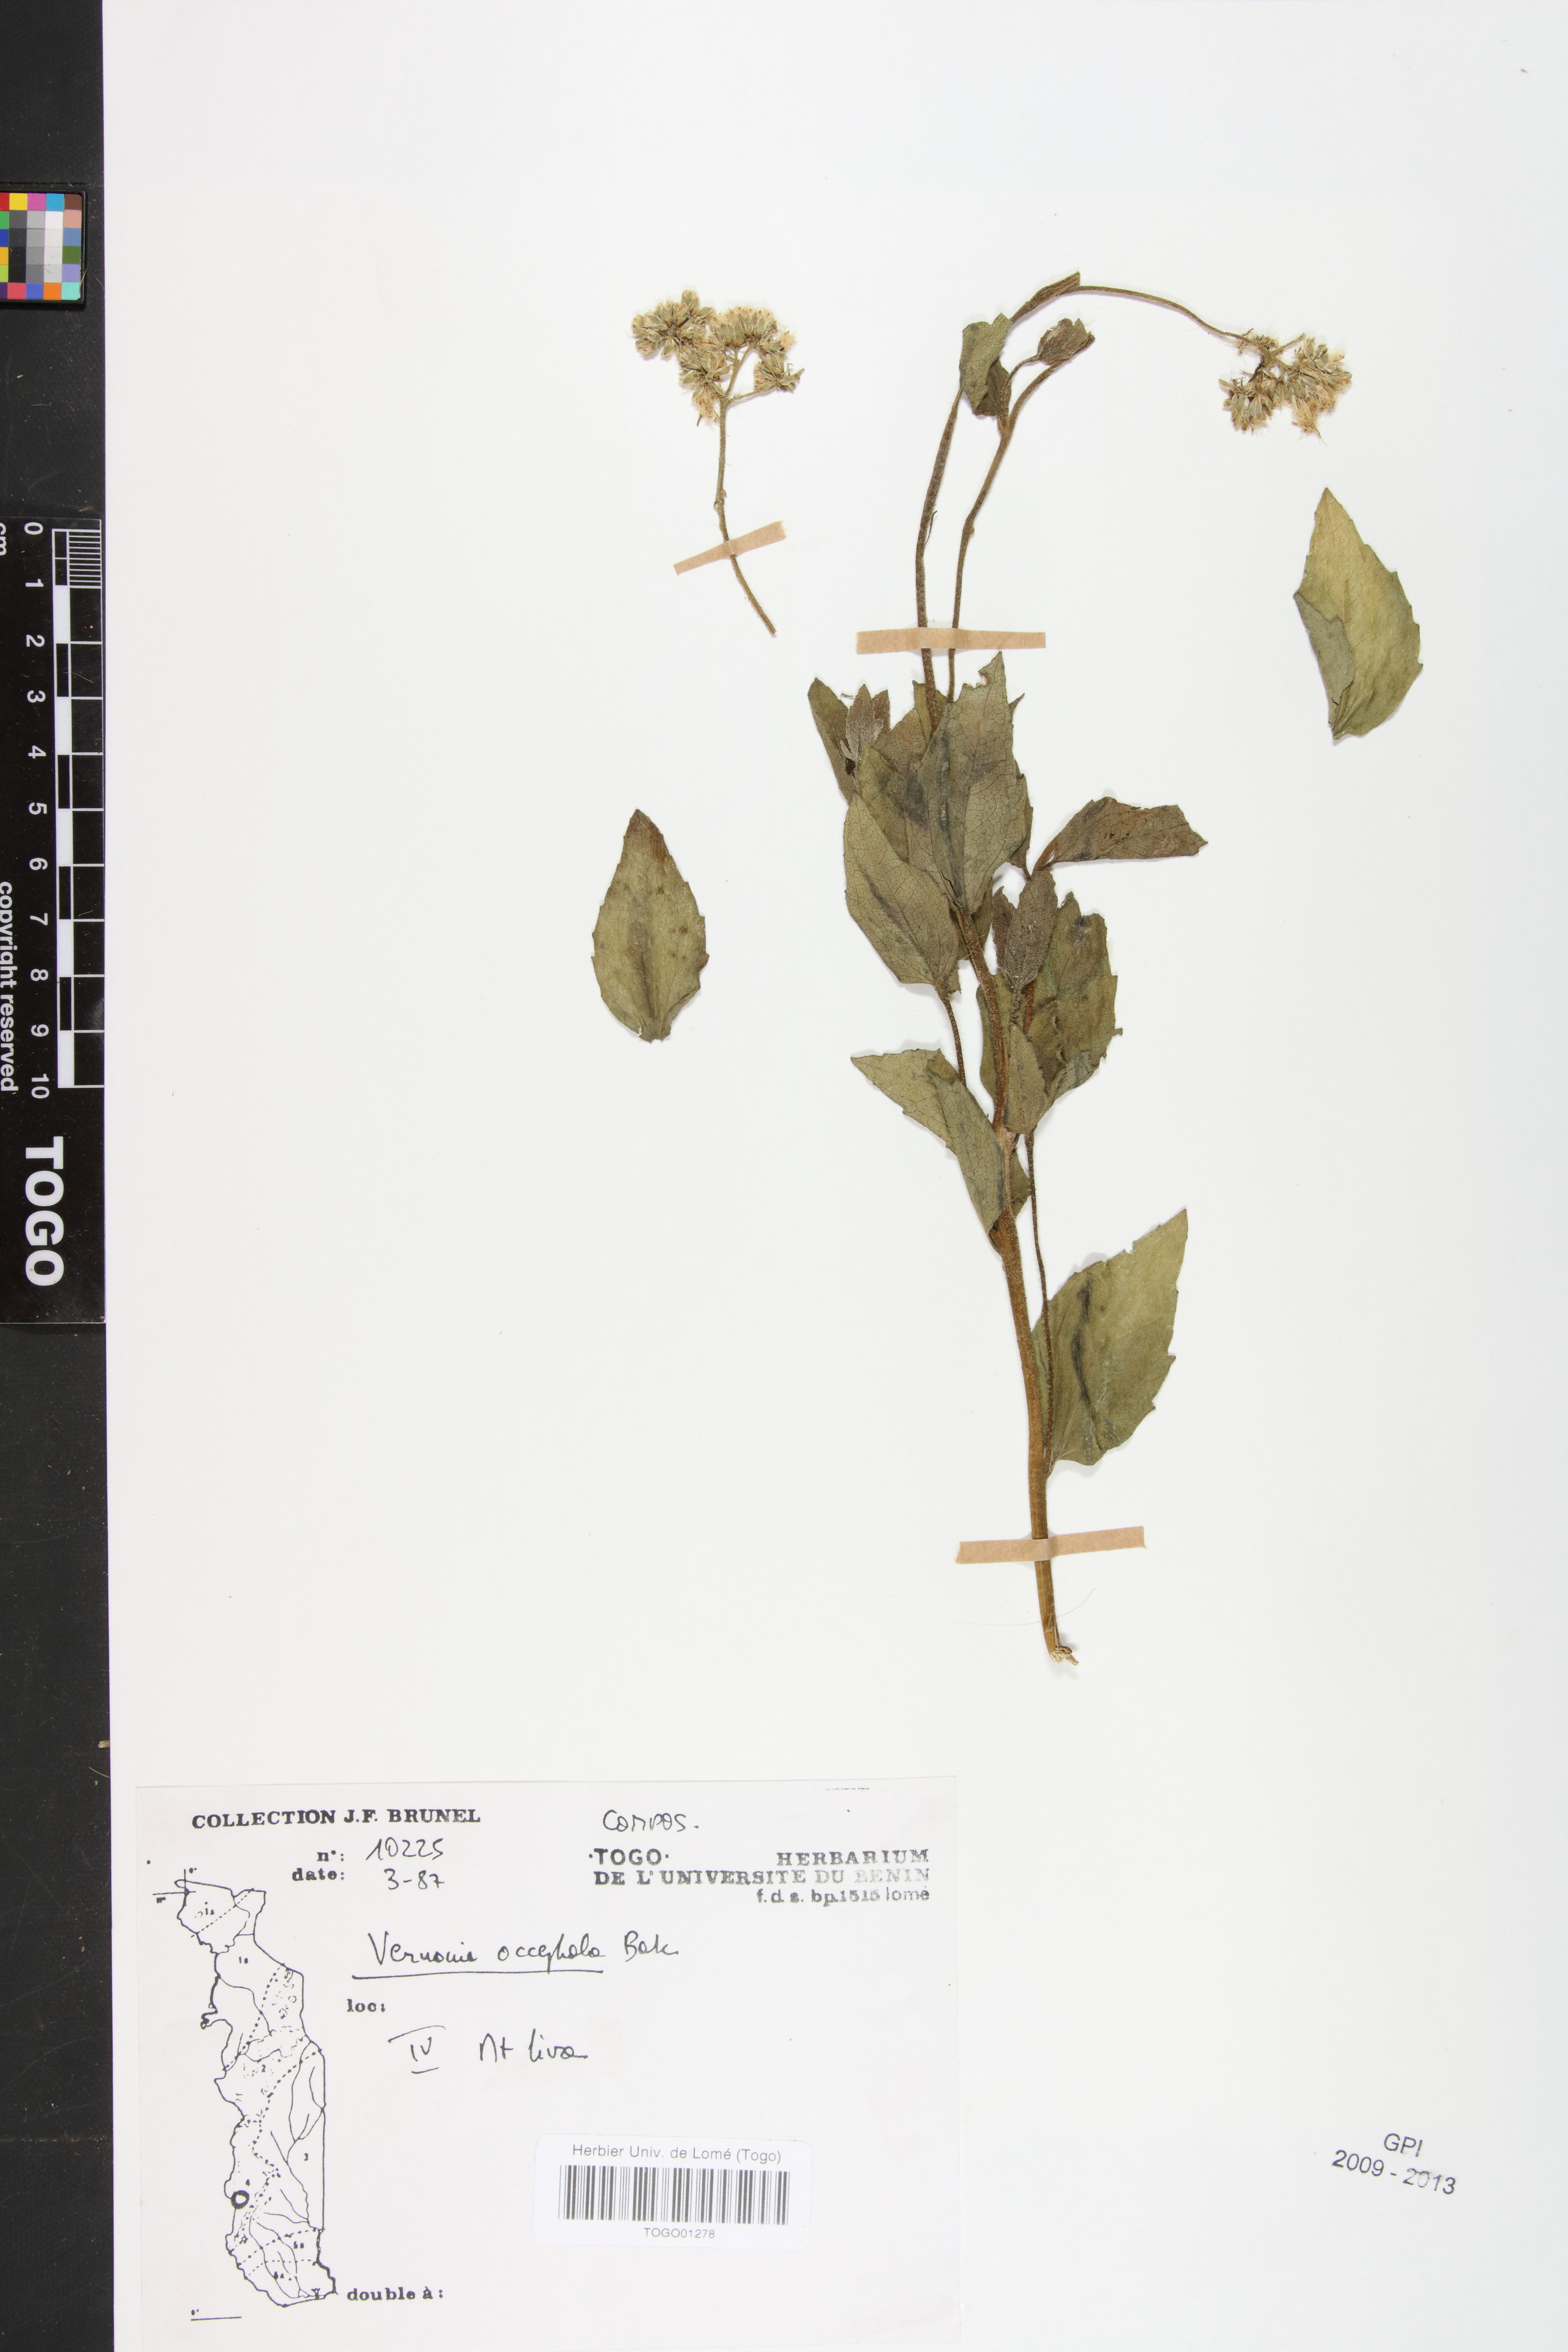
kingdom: Plantae
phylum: Tracheophyta
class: Magnoliopsida
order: Asterales
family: Asteraceae
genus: Oocephala
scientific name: Oocephala stenocephala
